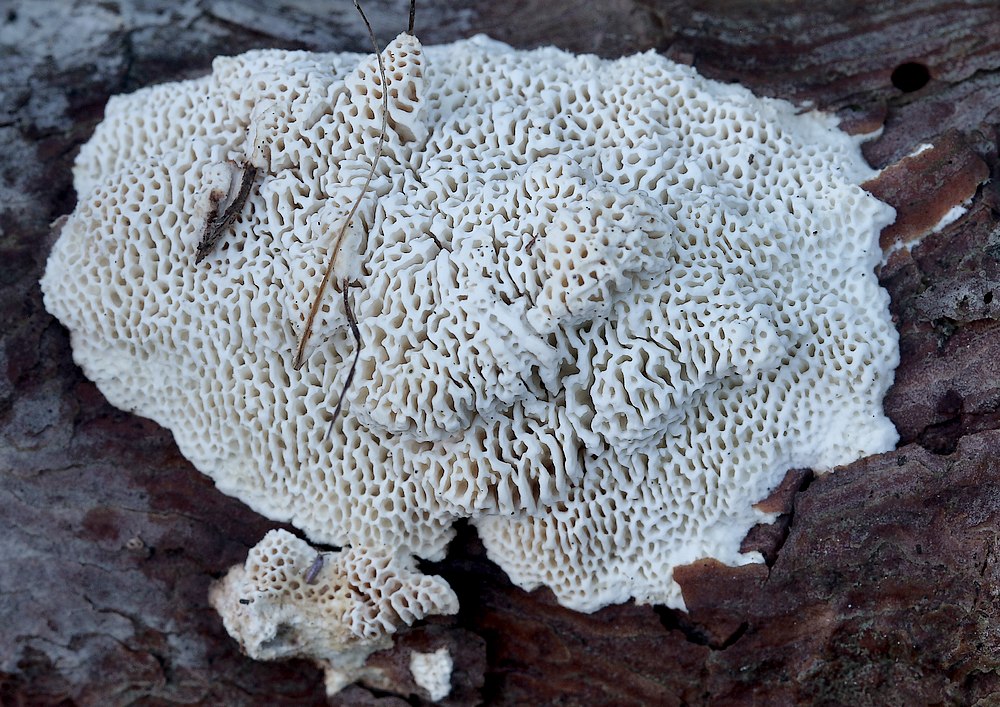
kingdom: Fungi
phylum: Basidiomycota
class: Agaricomycetes
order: Polyporales
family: Fomitopsidaceae
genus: Fomitopsis
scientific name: Fomitopsis
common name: fyrre-skiveporesvamp
